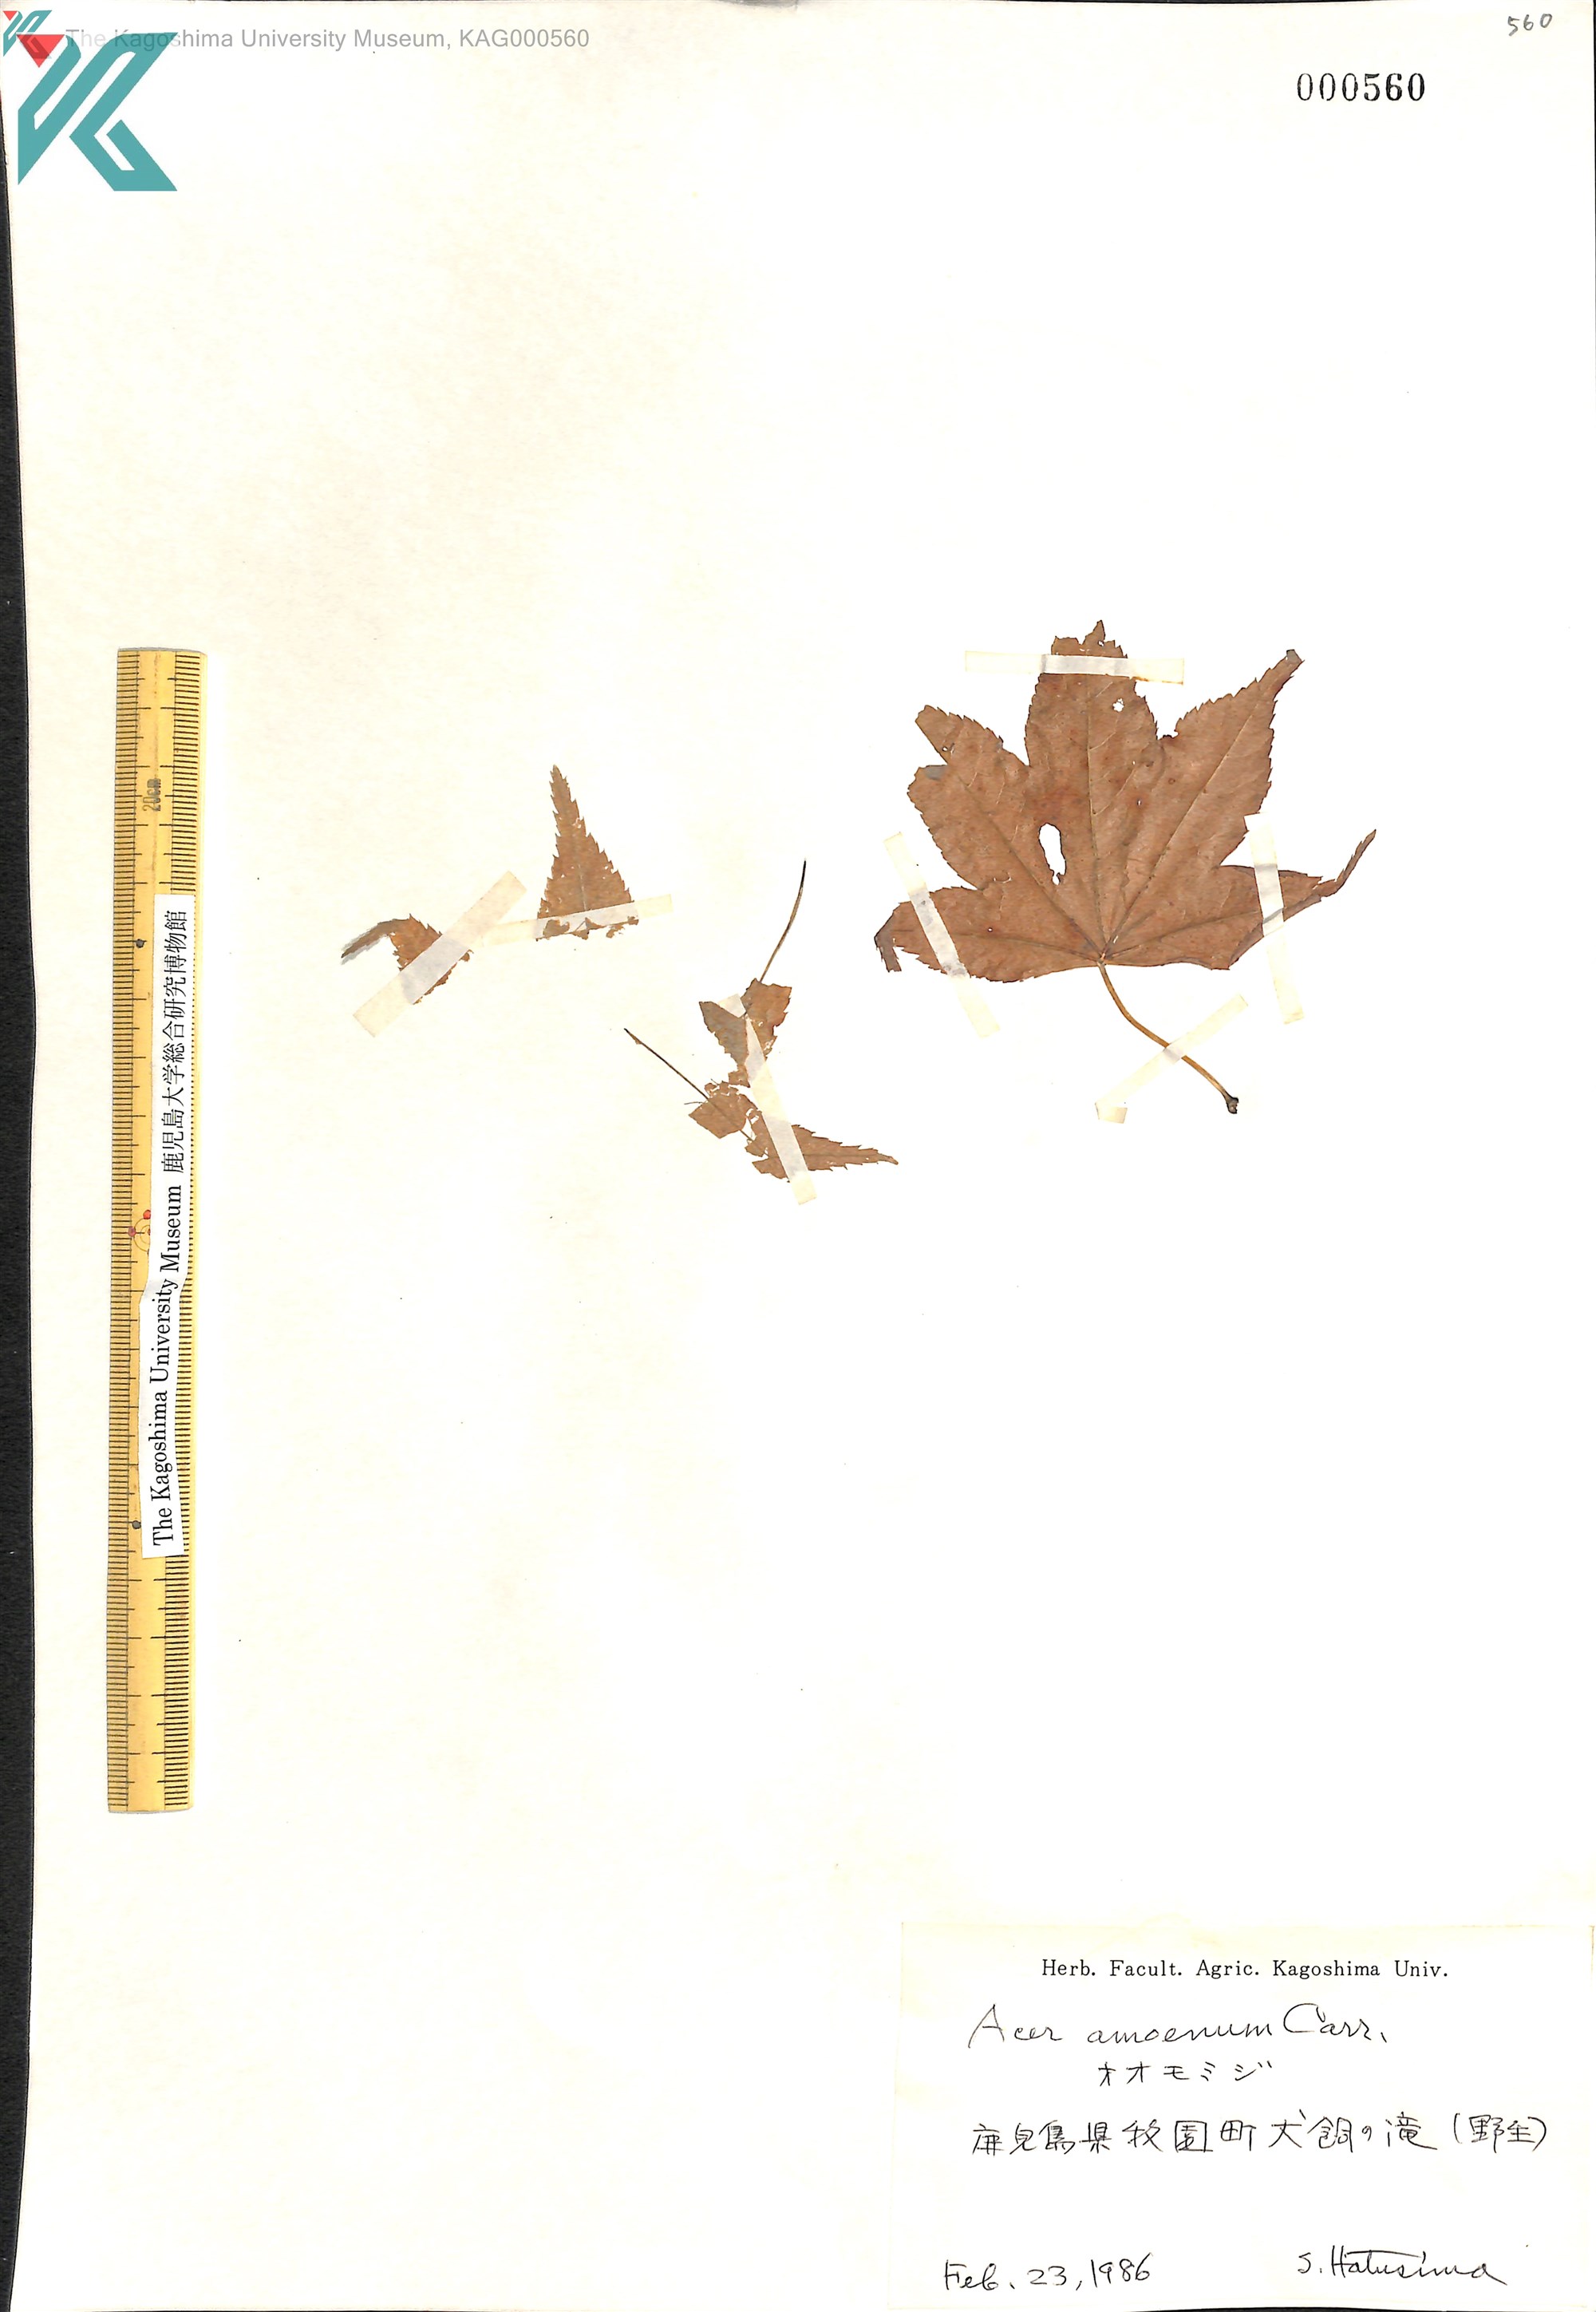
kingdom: Plantae
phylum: Tracheophyta
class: Magnoliopsida
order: Sapindales
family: Sapindaceae
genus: Acer
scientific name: Acer palmatum
